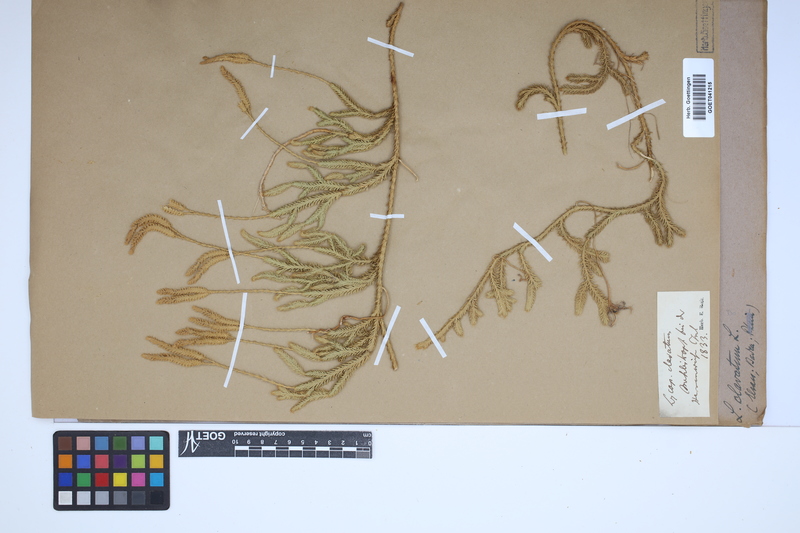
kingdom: Plantae
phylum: Tracheophyta
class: Lycopodiopsida
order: Lycopodiales
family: Lycopodiaceae
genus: Lycopodium
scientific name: Lycopodium clavatum
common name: Stag's-horn clubmoss
